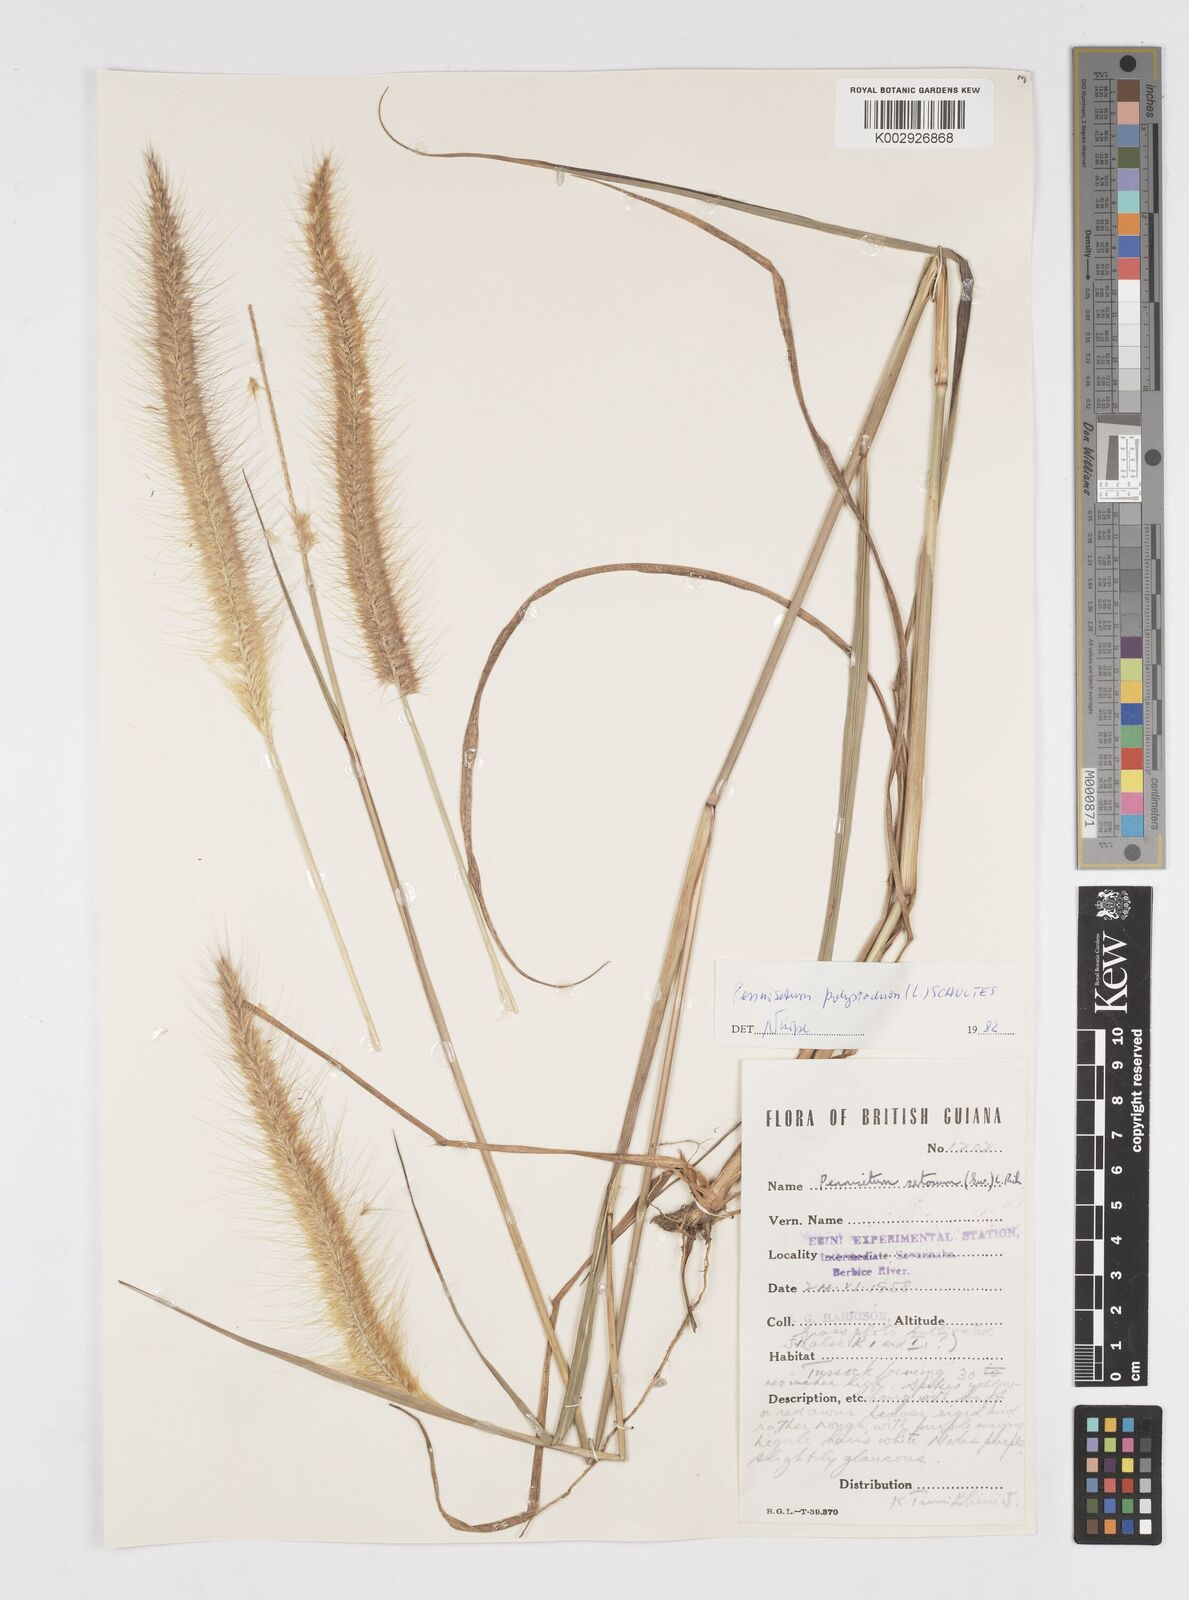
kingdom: Plantae
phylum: Tracheophyta
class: Liliopsida
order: Poales
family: Poaceae
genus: Cenchrus
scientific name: Cenchrus setosus
